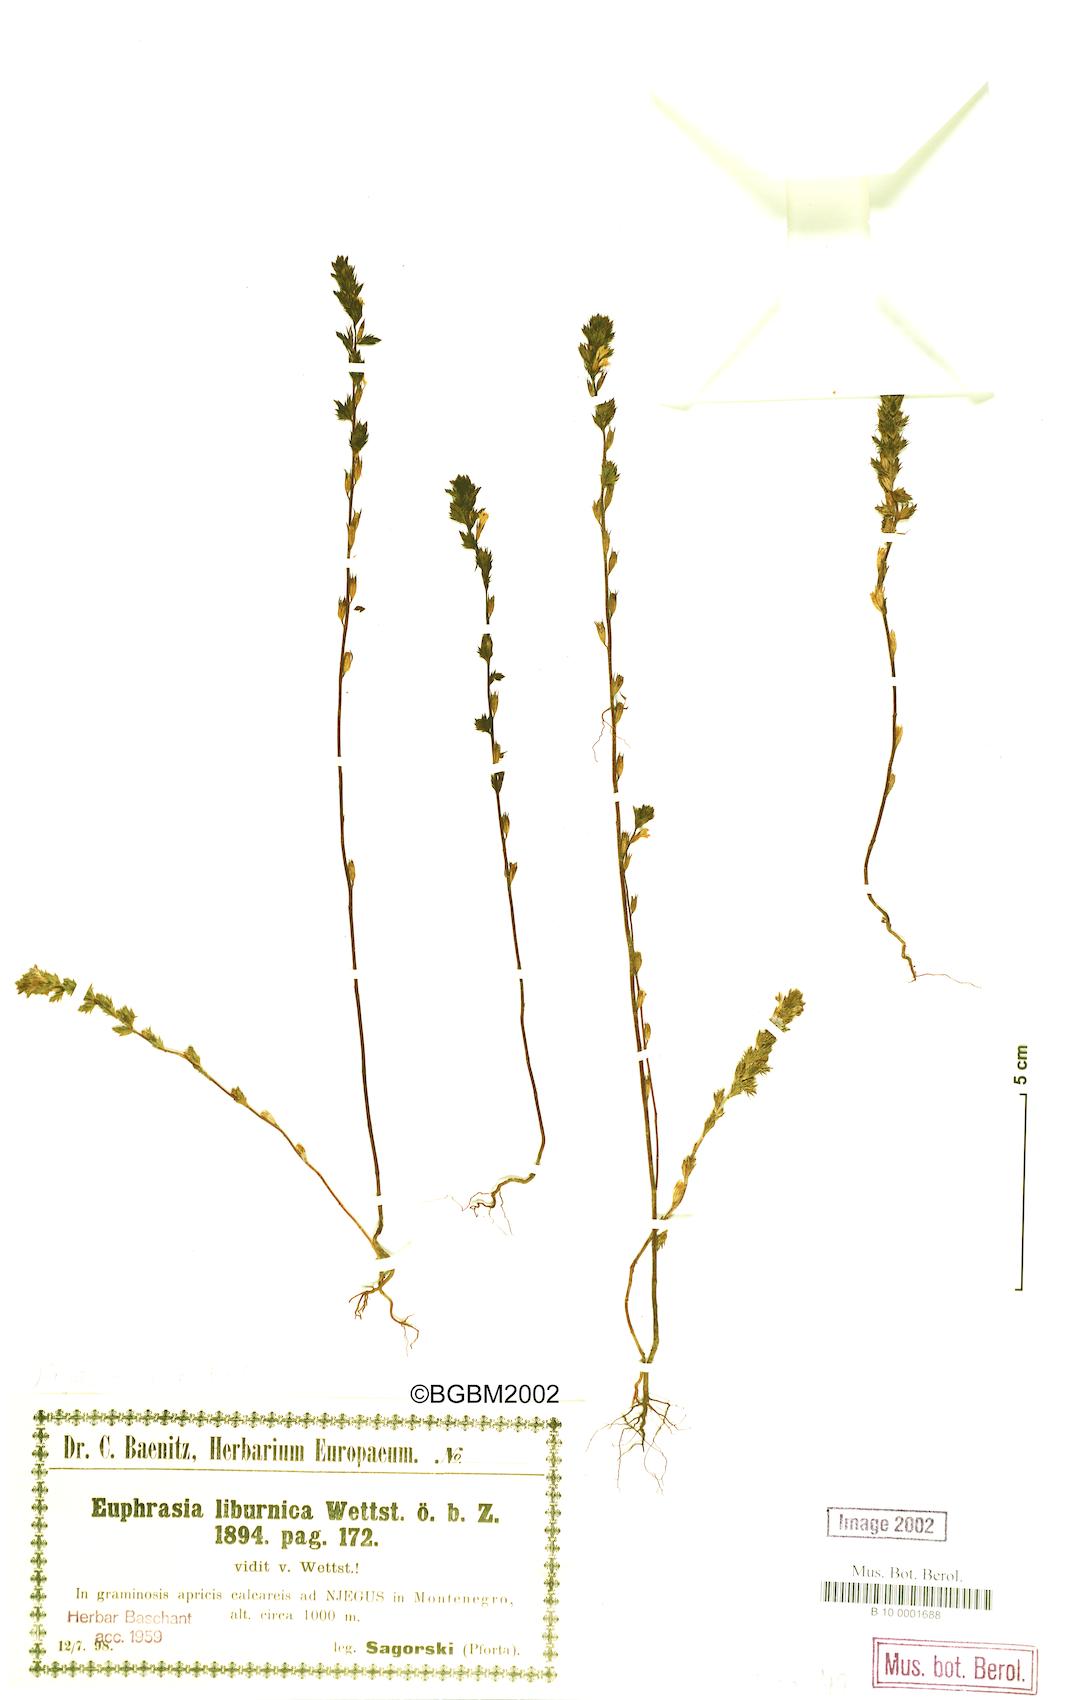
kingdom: Plantae
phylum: Tracheophyta
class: Magnoliopsida
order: Lamiales
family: Orobanchaceae
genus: Euphrasia
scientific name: Euphrasia liburnica
